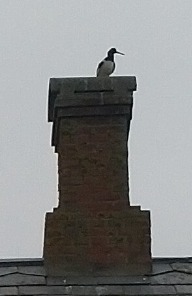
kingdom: Animalia
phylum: Chordata
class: Aves
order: Charadriiformes
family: Haematopodidae
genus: Haematopus
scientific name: Haematopus ostralegus
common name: Strandskade
